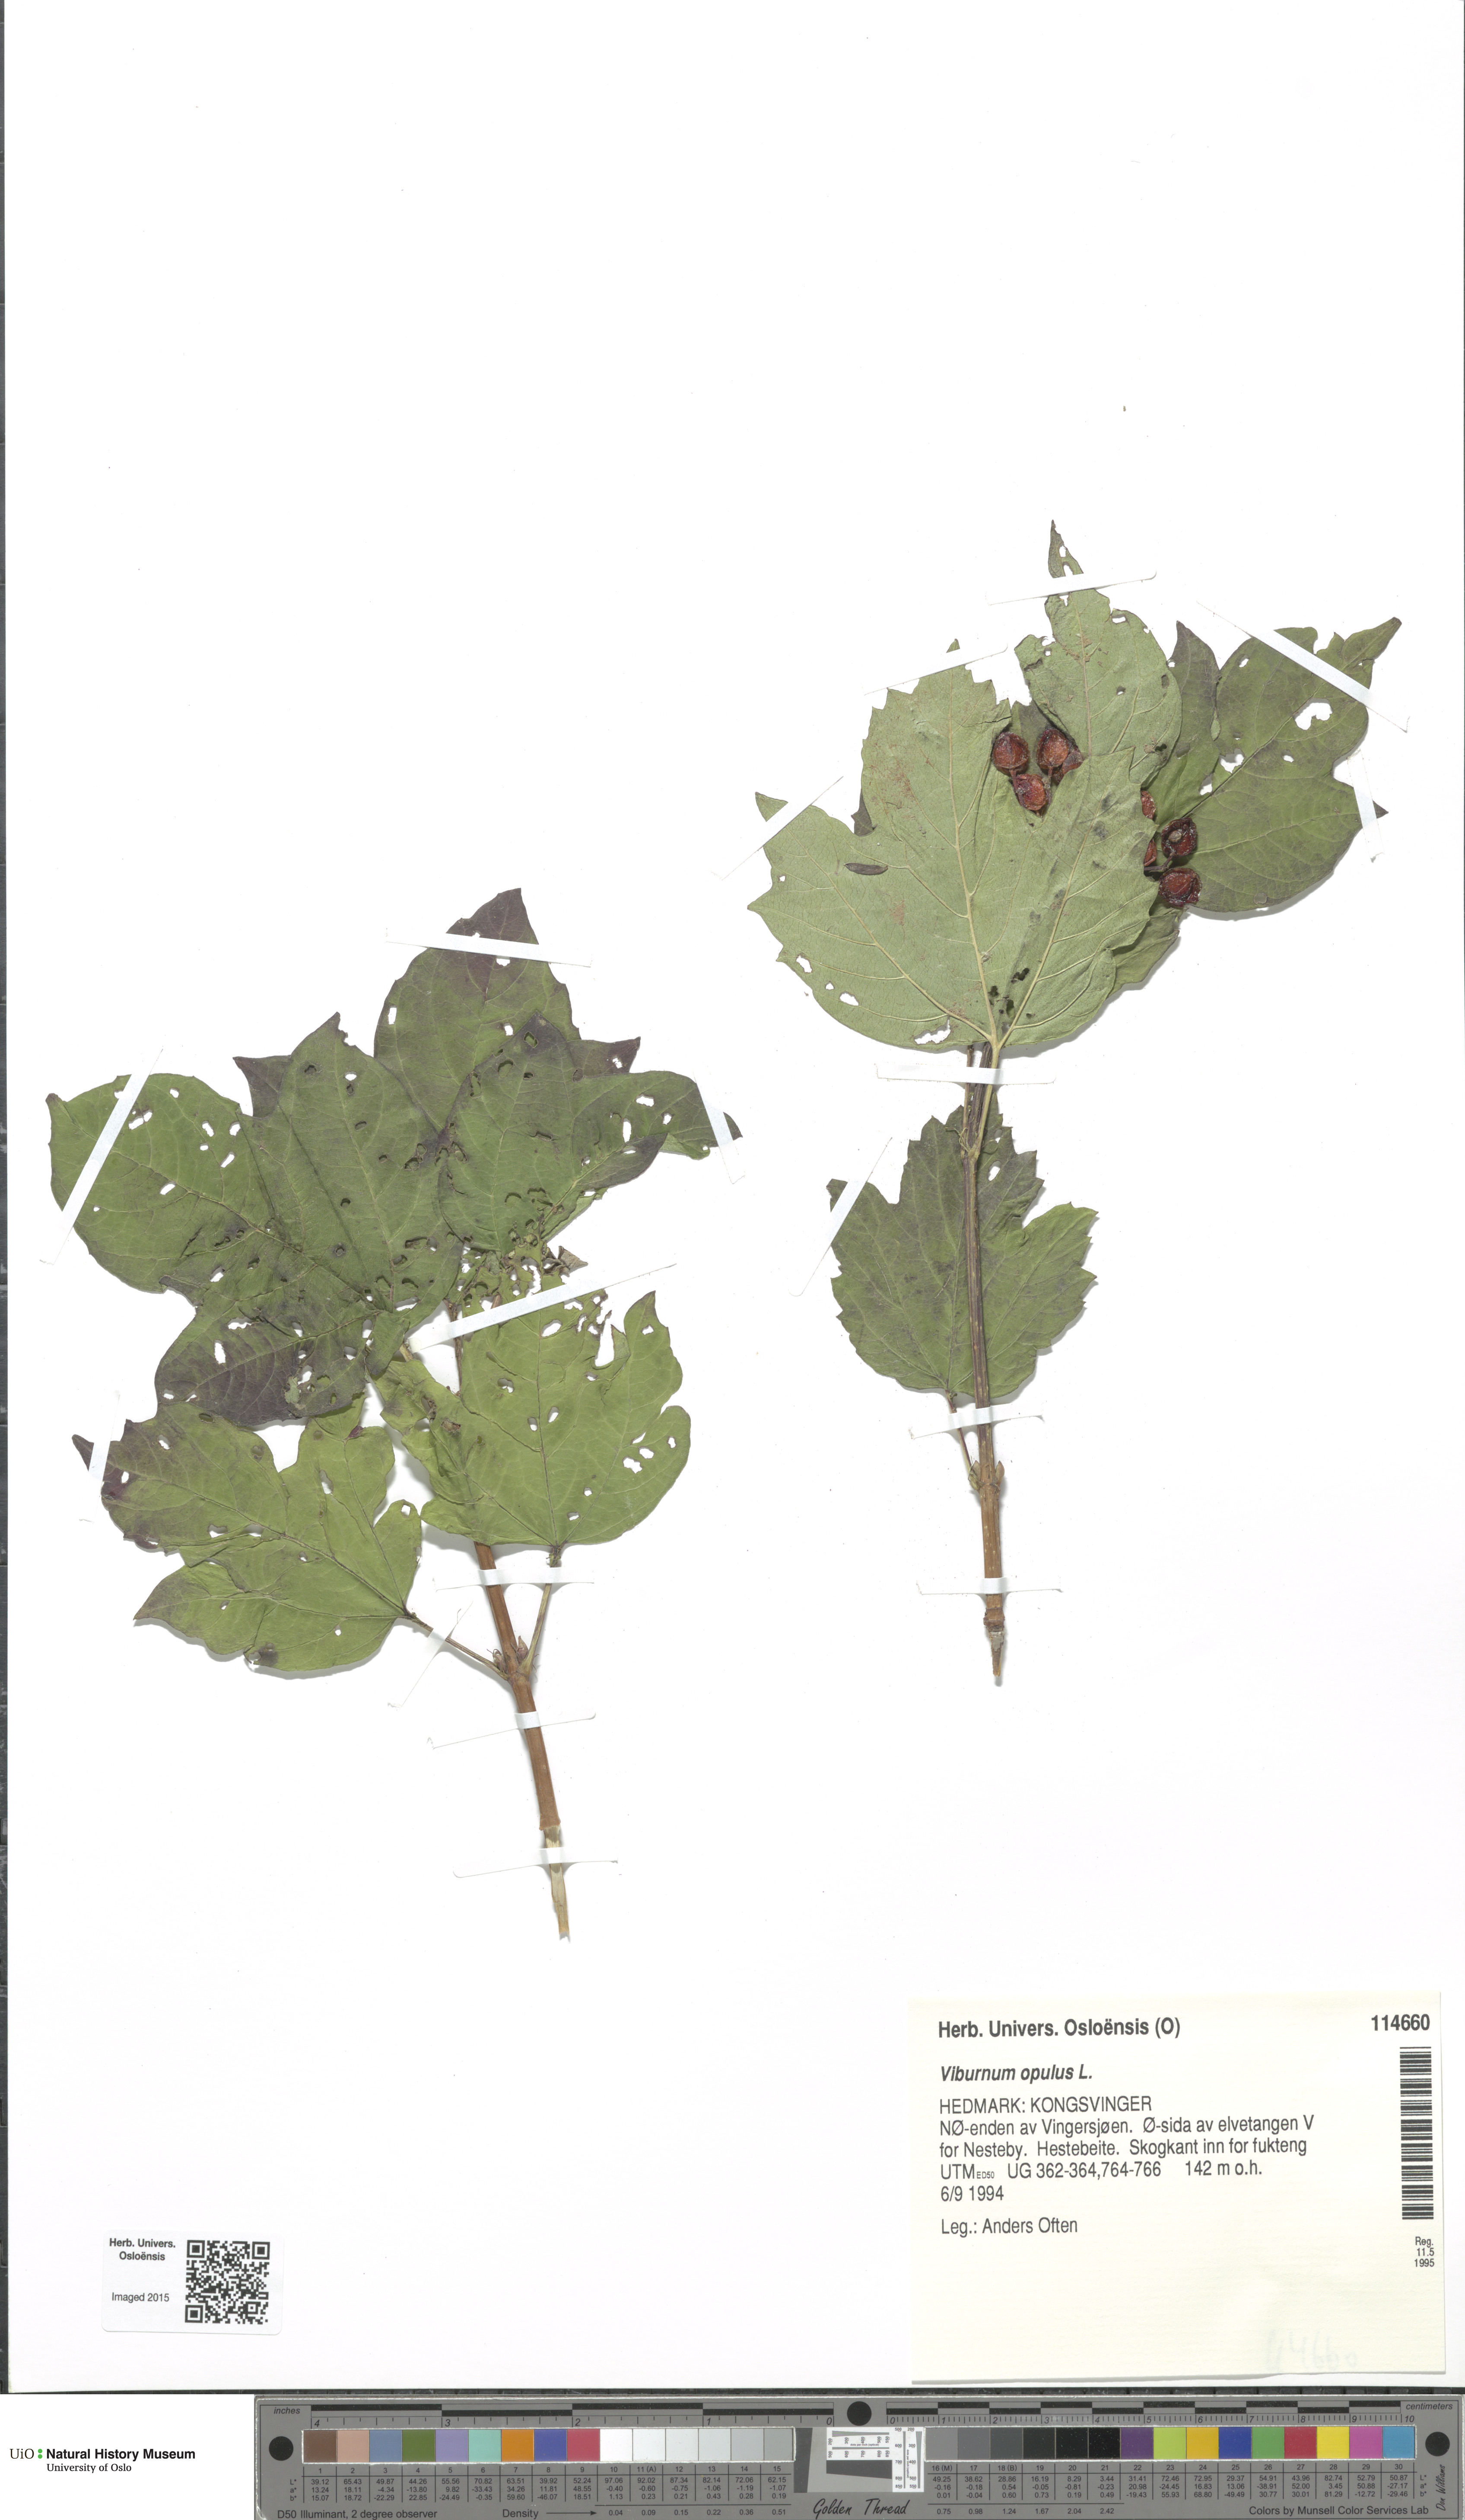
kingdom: Plantae
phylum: Tracheophyta
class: Magnoliopsida
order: Dipsacales
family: Viburnaceae
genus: Viburnum
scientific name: Viburnum opulus
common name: Guelder-rose
